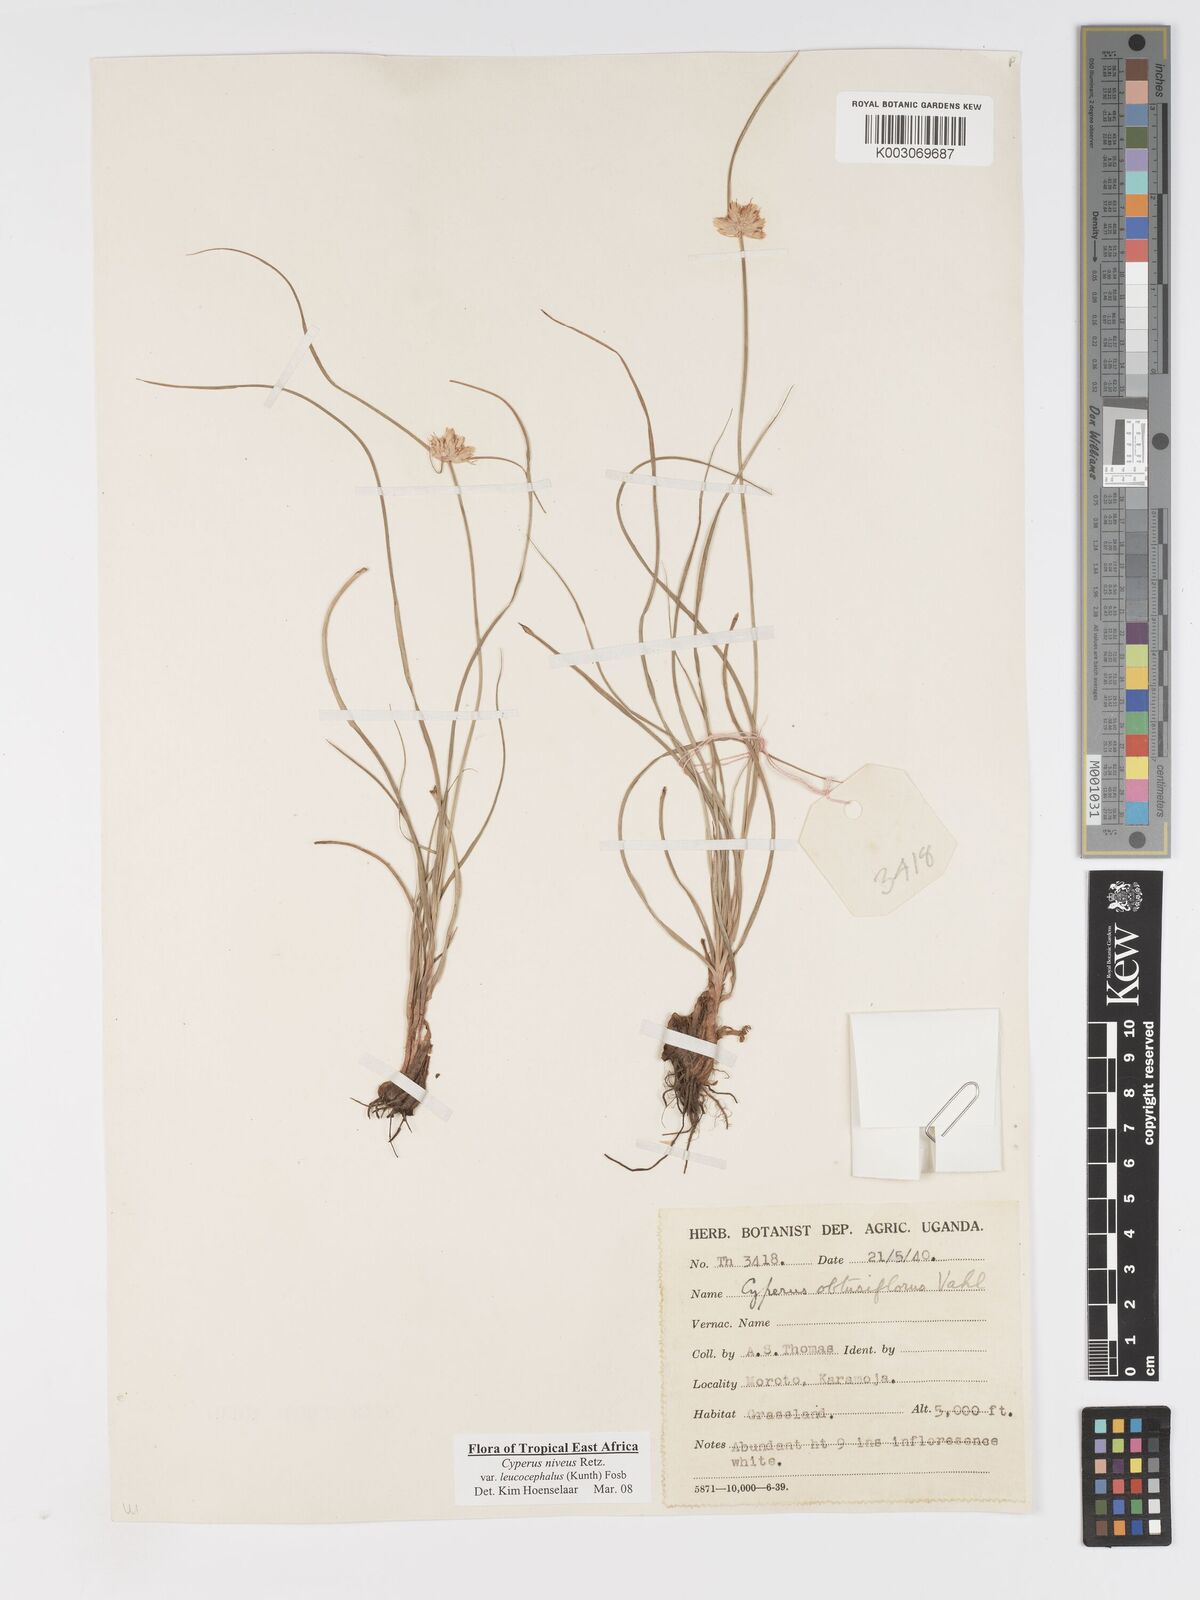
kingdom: Plantae
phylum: Tracheophyta
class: Liliopsida
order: Poales
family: Cyperaceae
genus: Cyperus
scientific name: Cyperus niveus
